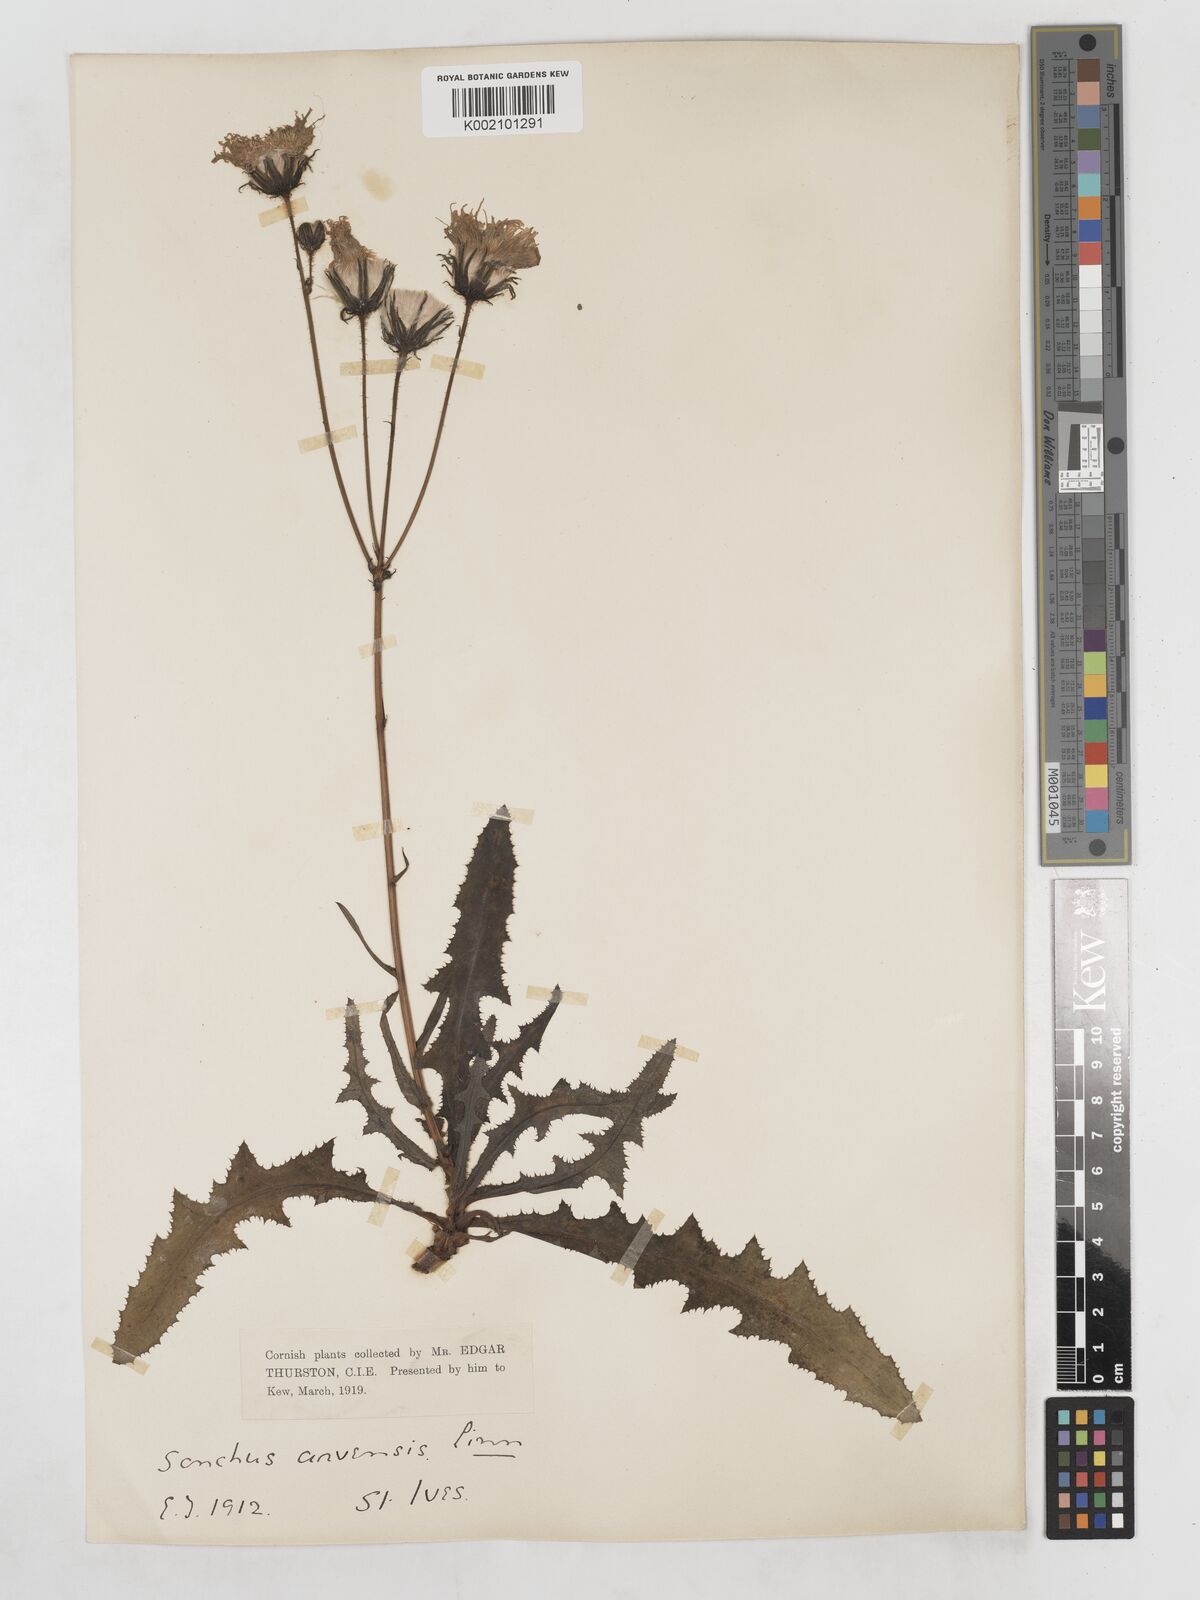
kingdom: Plantae
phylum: Tracheophyta
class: Magnoliopsida
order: Asterales
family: Asteraceae
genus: Sonchus
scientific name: Sonchus arvensis
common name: Perennial sow-thistle
